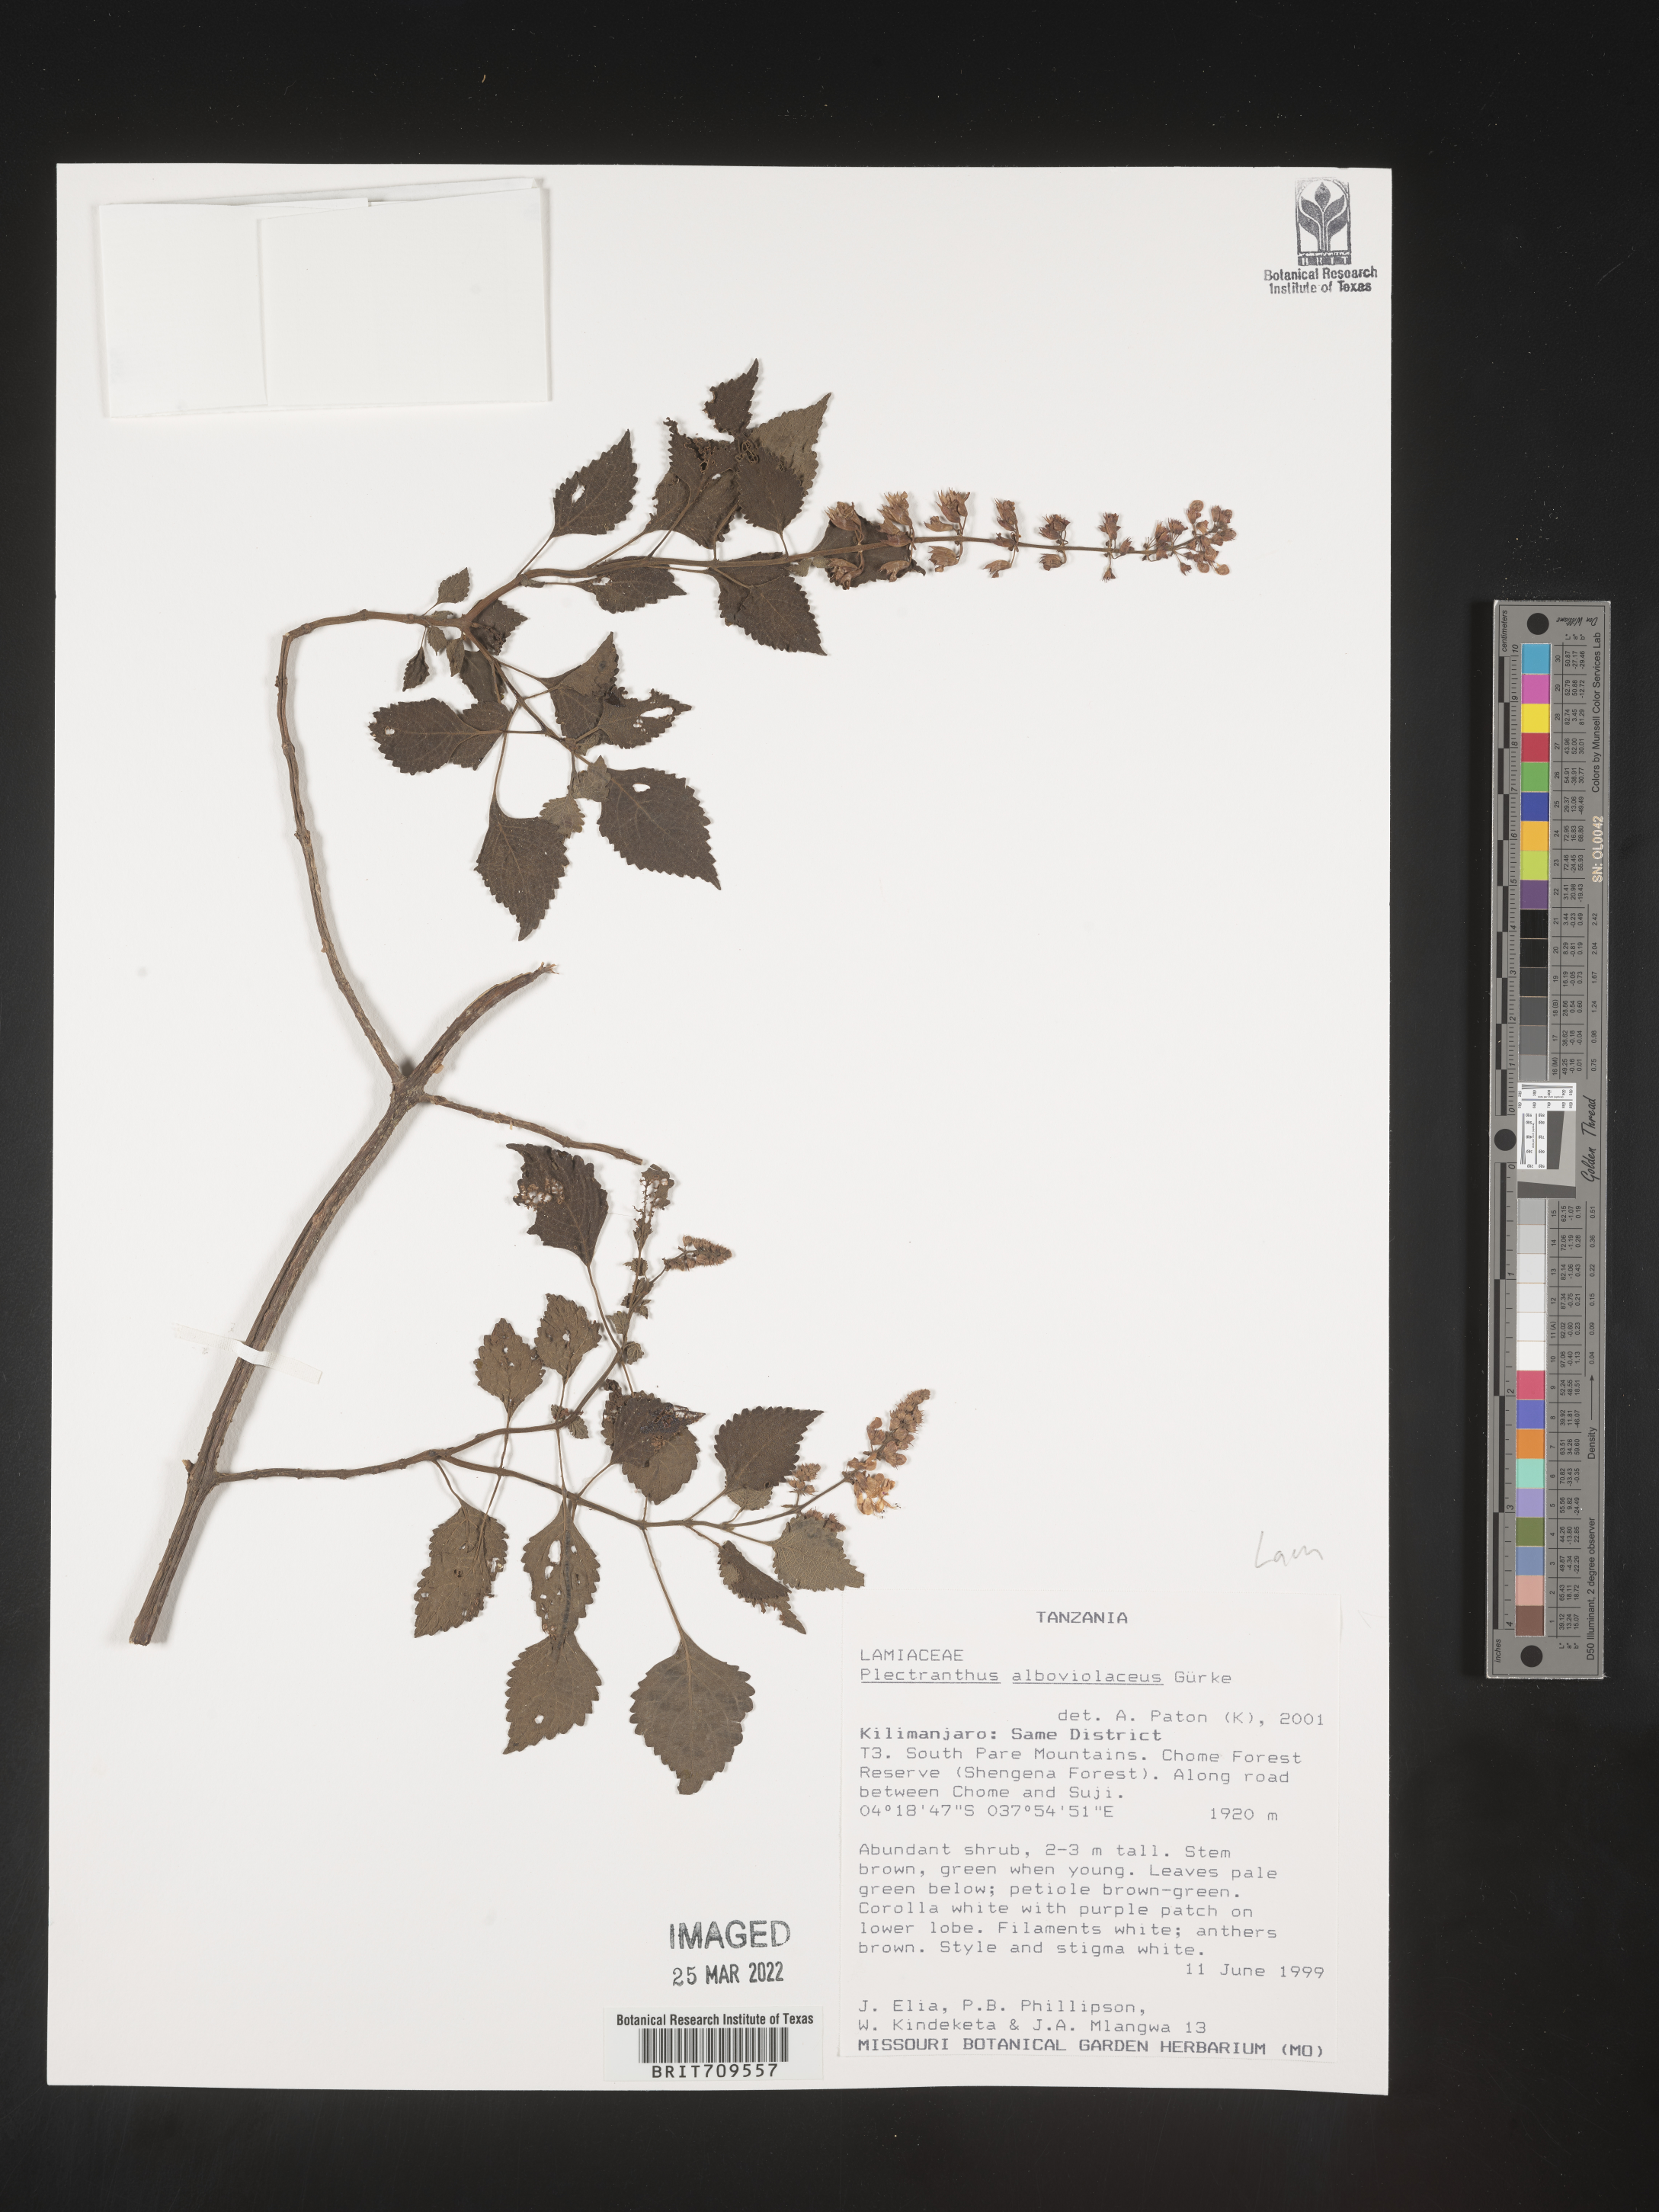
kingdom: Plantae
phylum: Tracheophyta
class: Magnoliopsida
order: Lamiales
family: Lamiaceae
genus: Plectranthus
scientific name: Plectranthus
